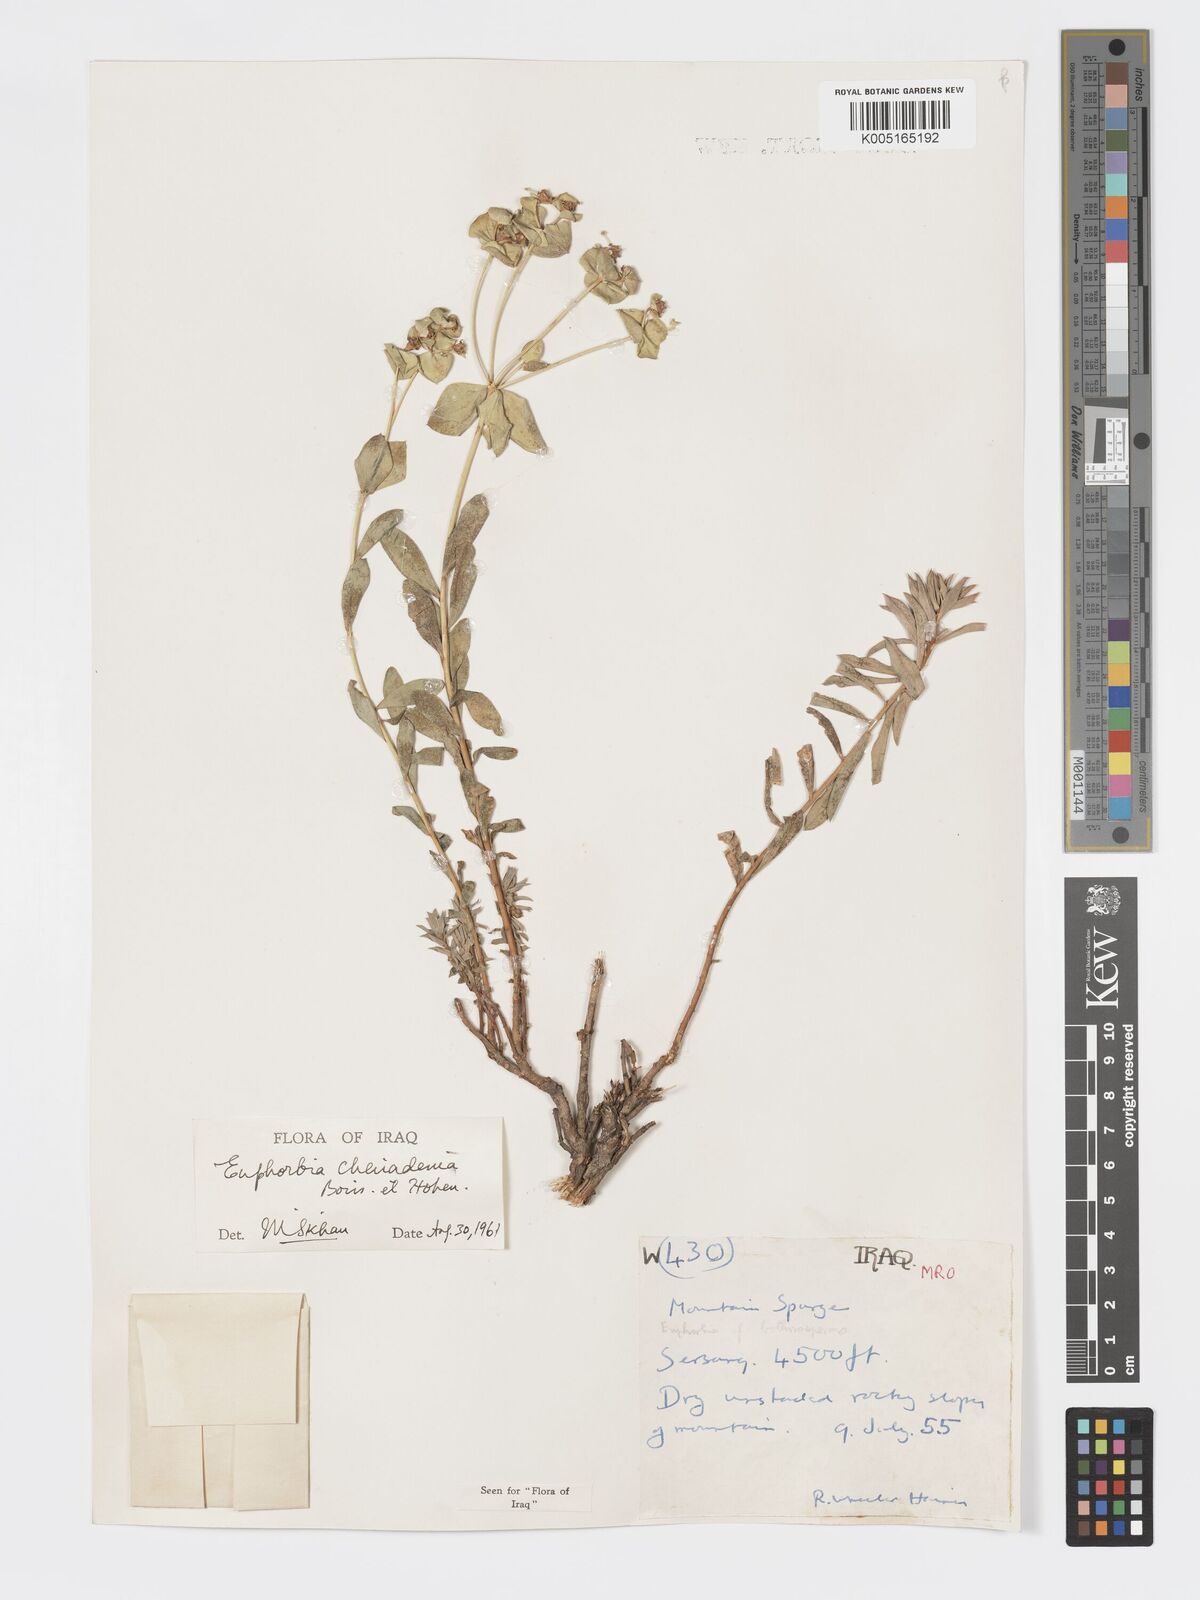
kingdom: Plantae
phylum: Tracheophyta
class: Magnoliopsida
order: Malpighiales
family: Euphorbiaceae
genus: Euphorbia
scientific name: Euphorbia cheiradenia
